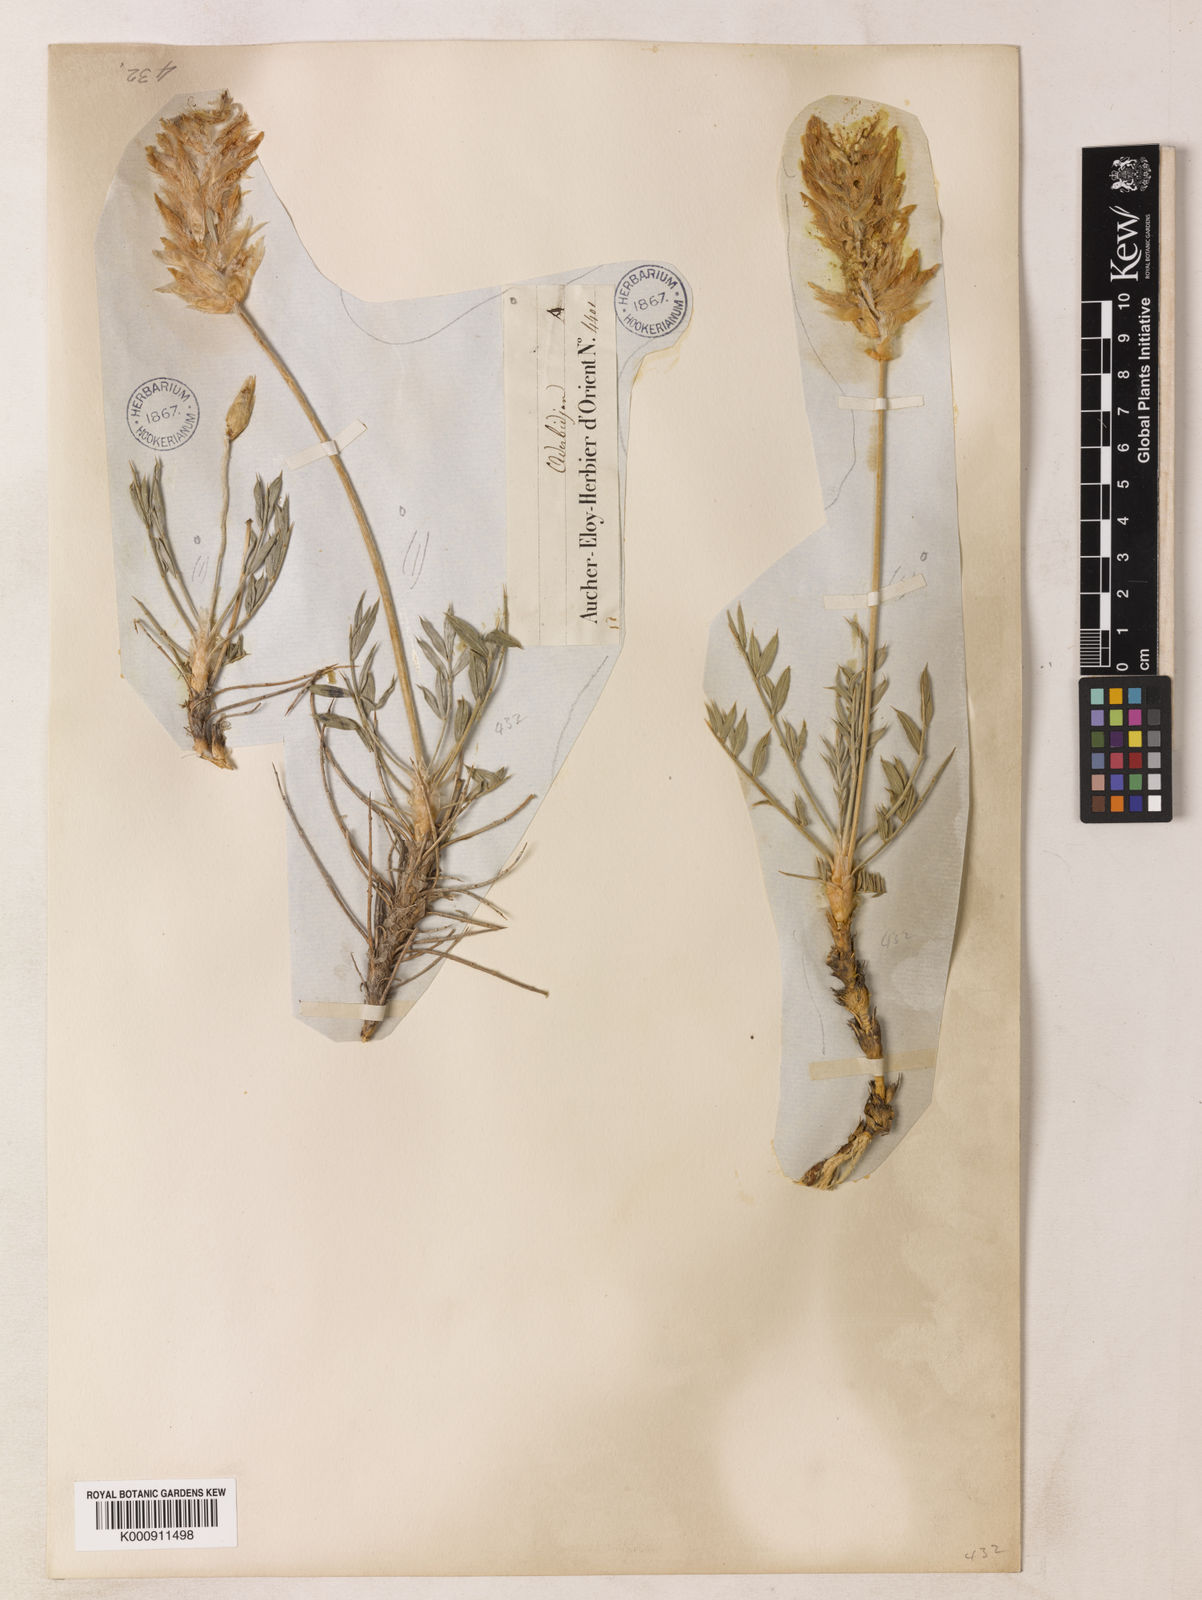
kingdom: Plantae
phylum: Tracheophyta
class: Magnoliopsida
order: Fabales
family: Fabaceae
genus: Astragalus
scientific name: Astragalus chrysostachys
